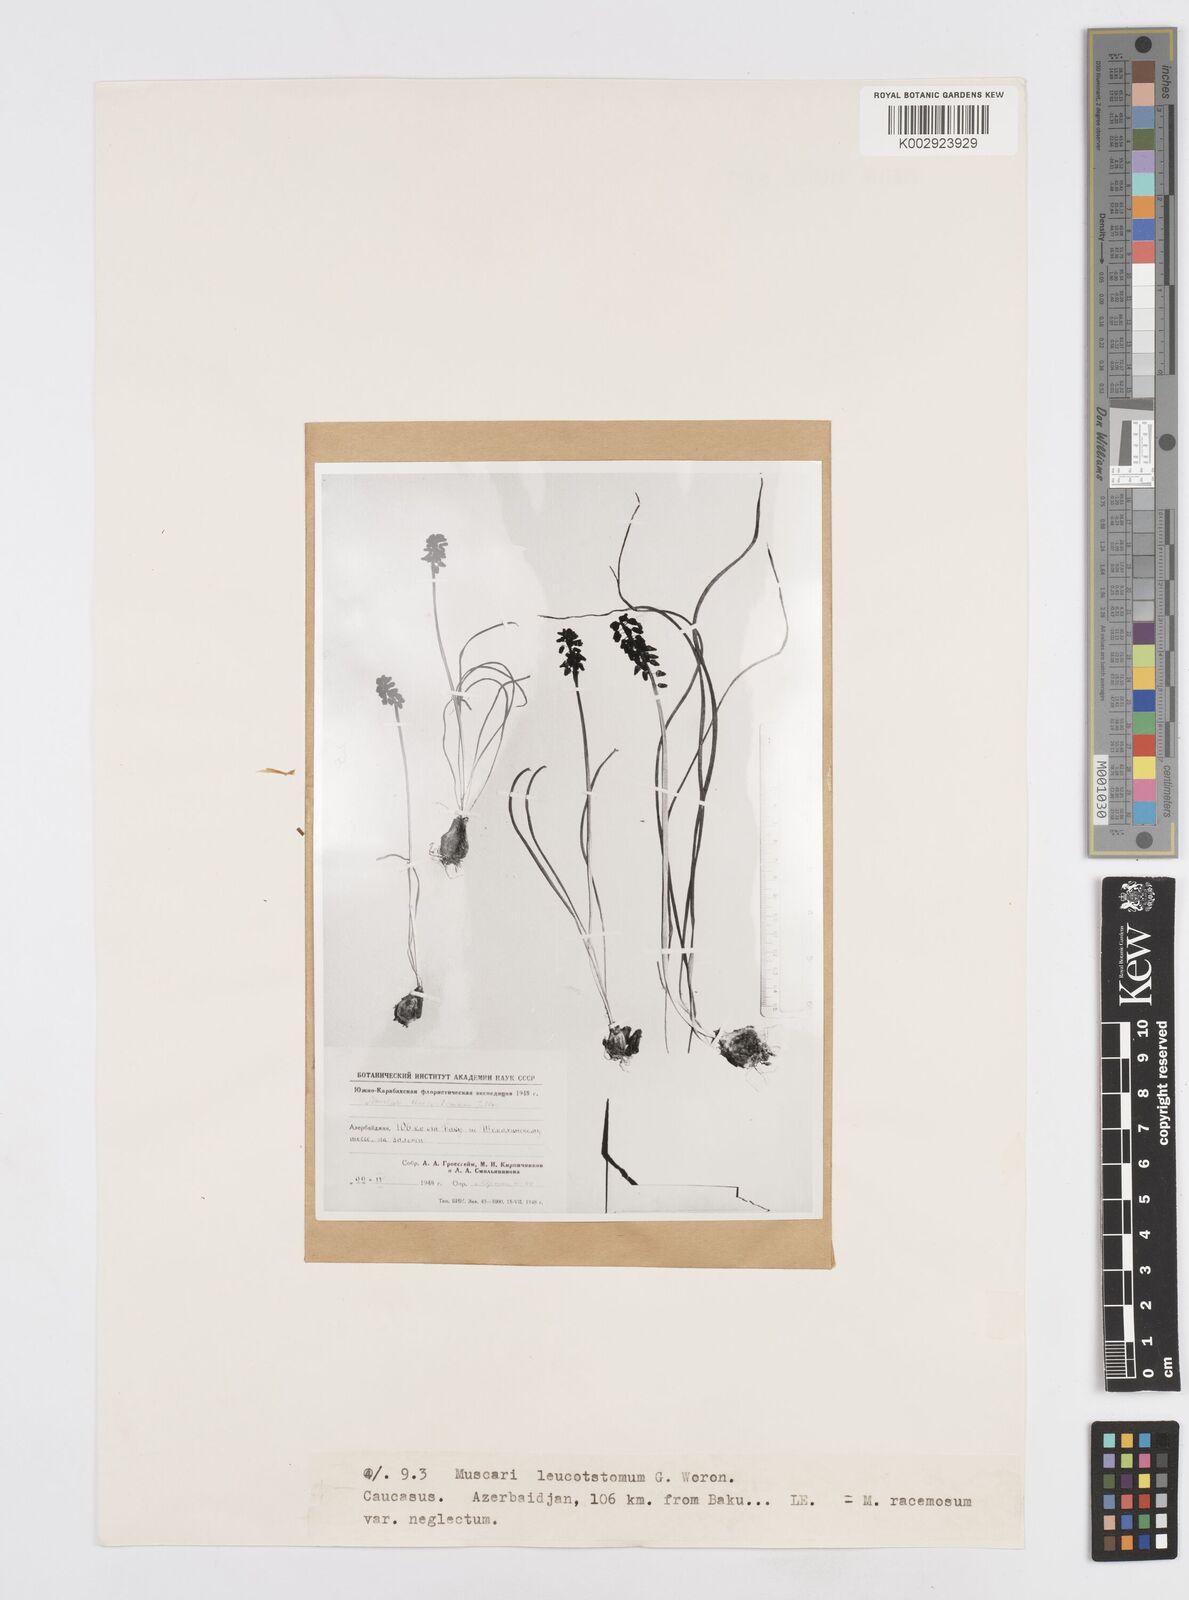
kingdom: Plantae
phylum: Tracheophyta
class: Liliopsida
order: Asparagales
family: Asparagaceae
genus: Muscari
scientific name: Muscari neglectum
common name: Grape-hyacinth
